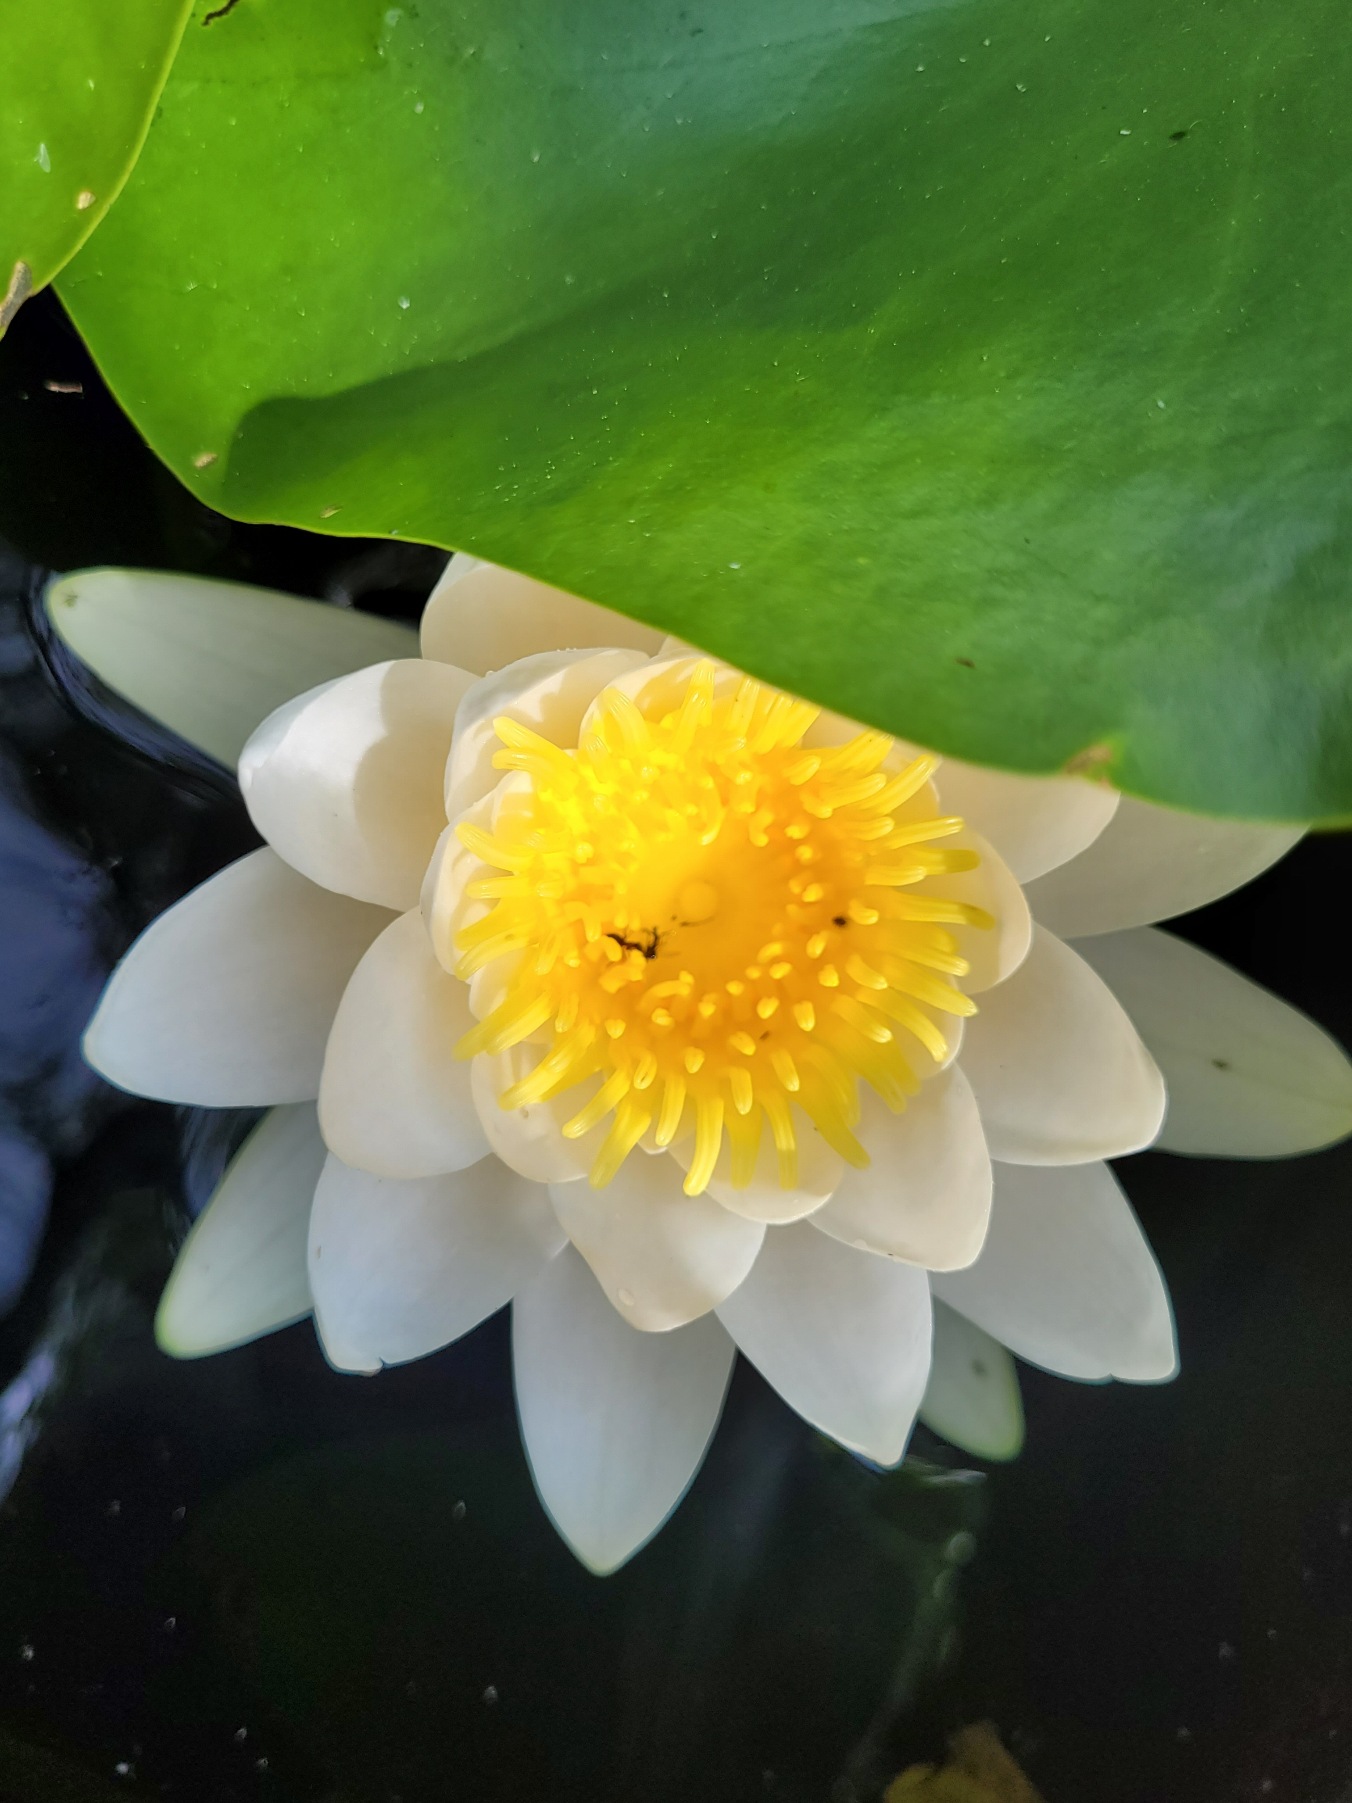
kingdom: Plantae
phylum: Tracheophyta
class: Magnoliopsida
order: Nymphaeales
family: Nymphaeaceae
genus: Nymphaea
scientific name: Nymphaea alba
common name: Hvid åkande
